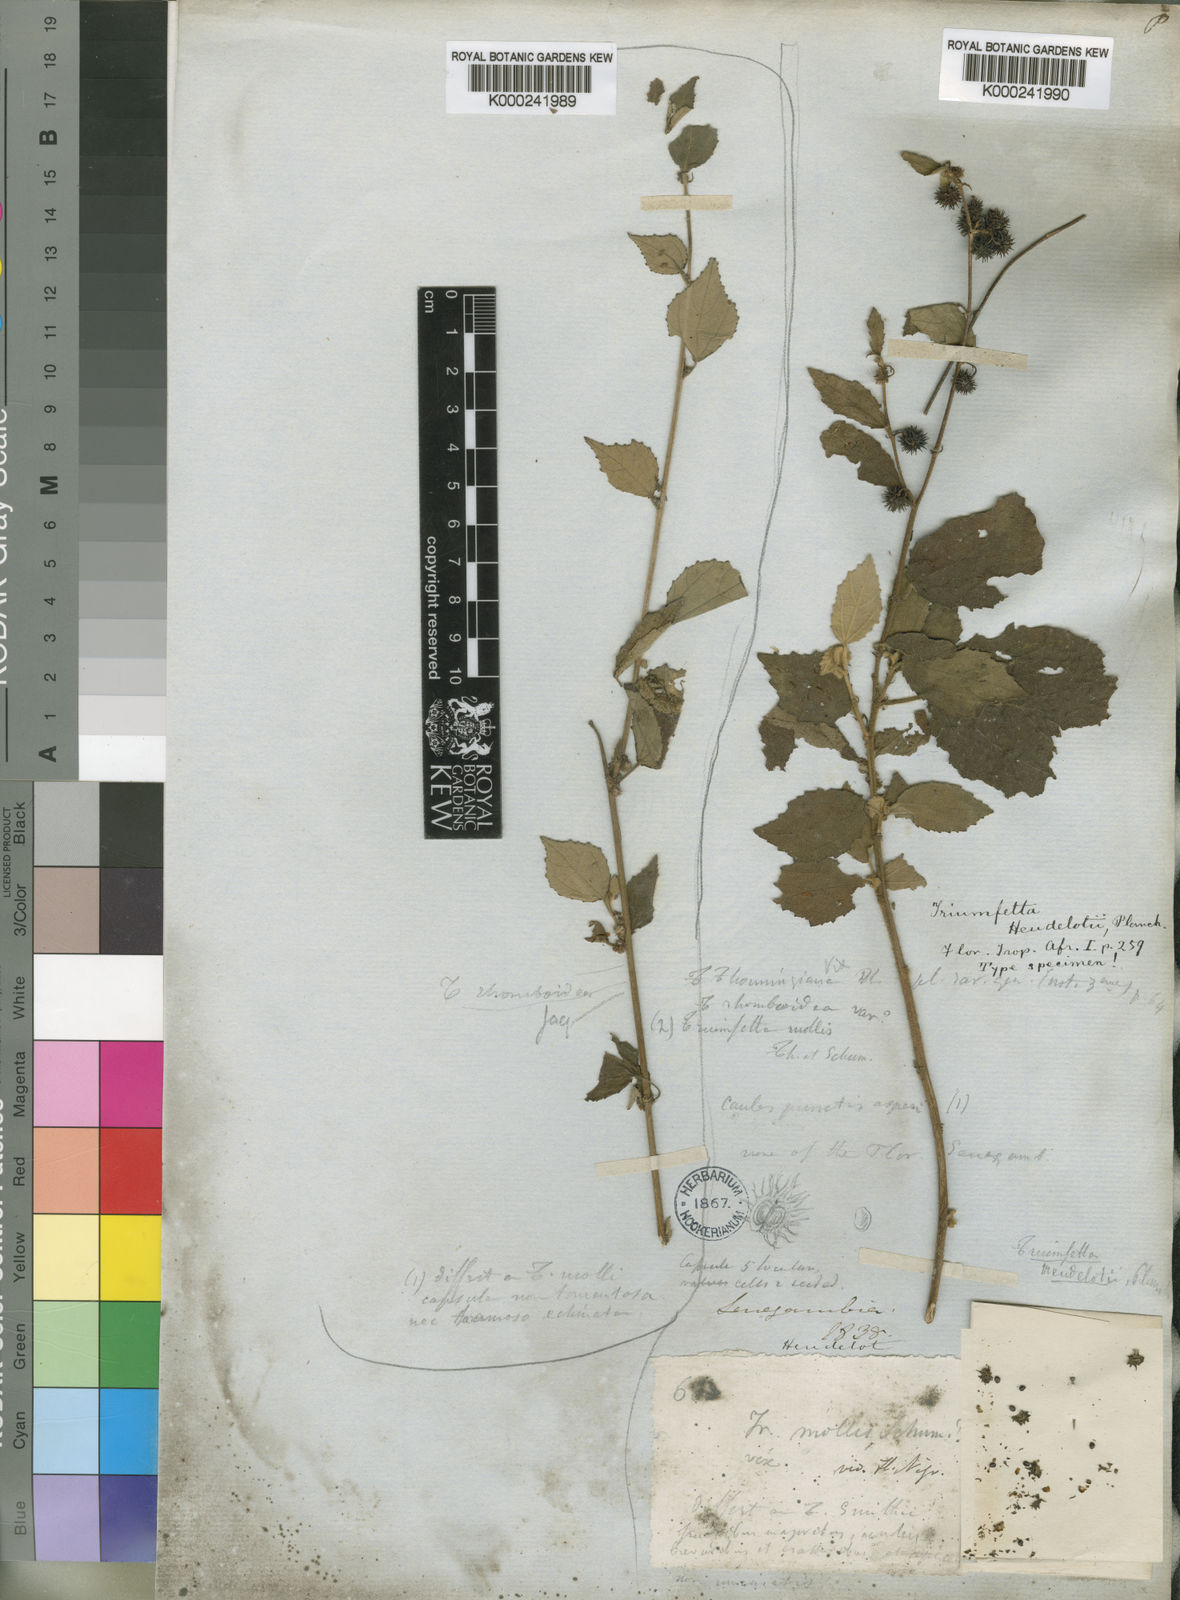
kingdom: Plantae
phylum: Tracheophyta
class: Magnoliopsida
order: Malvales
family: Malvaceae
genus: Triumfetta
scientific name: Triumfetta rhomboidea
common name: Diamond burbark
